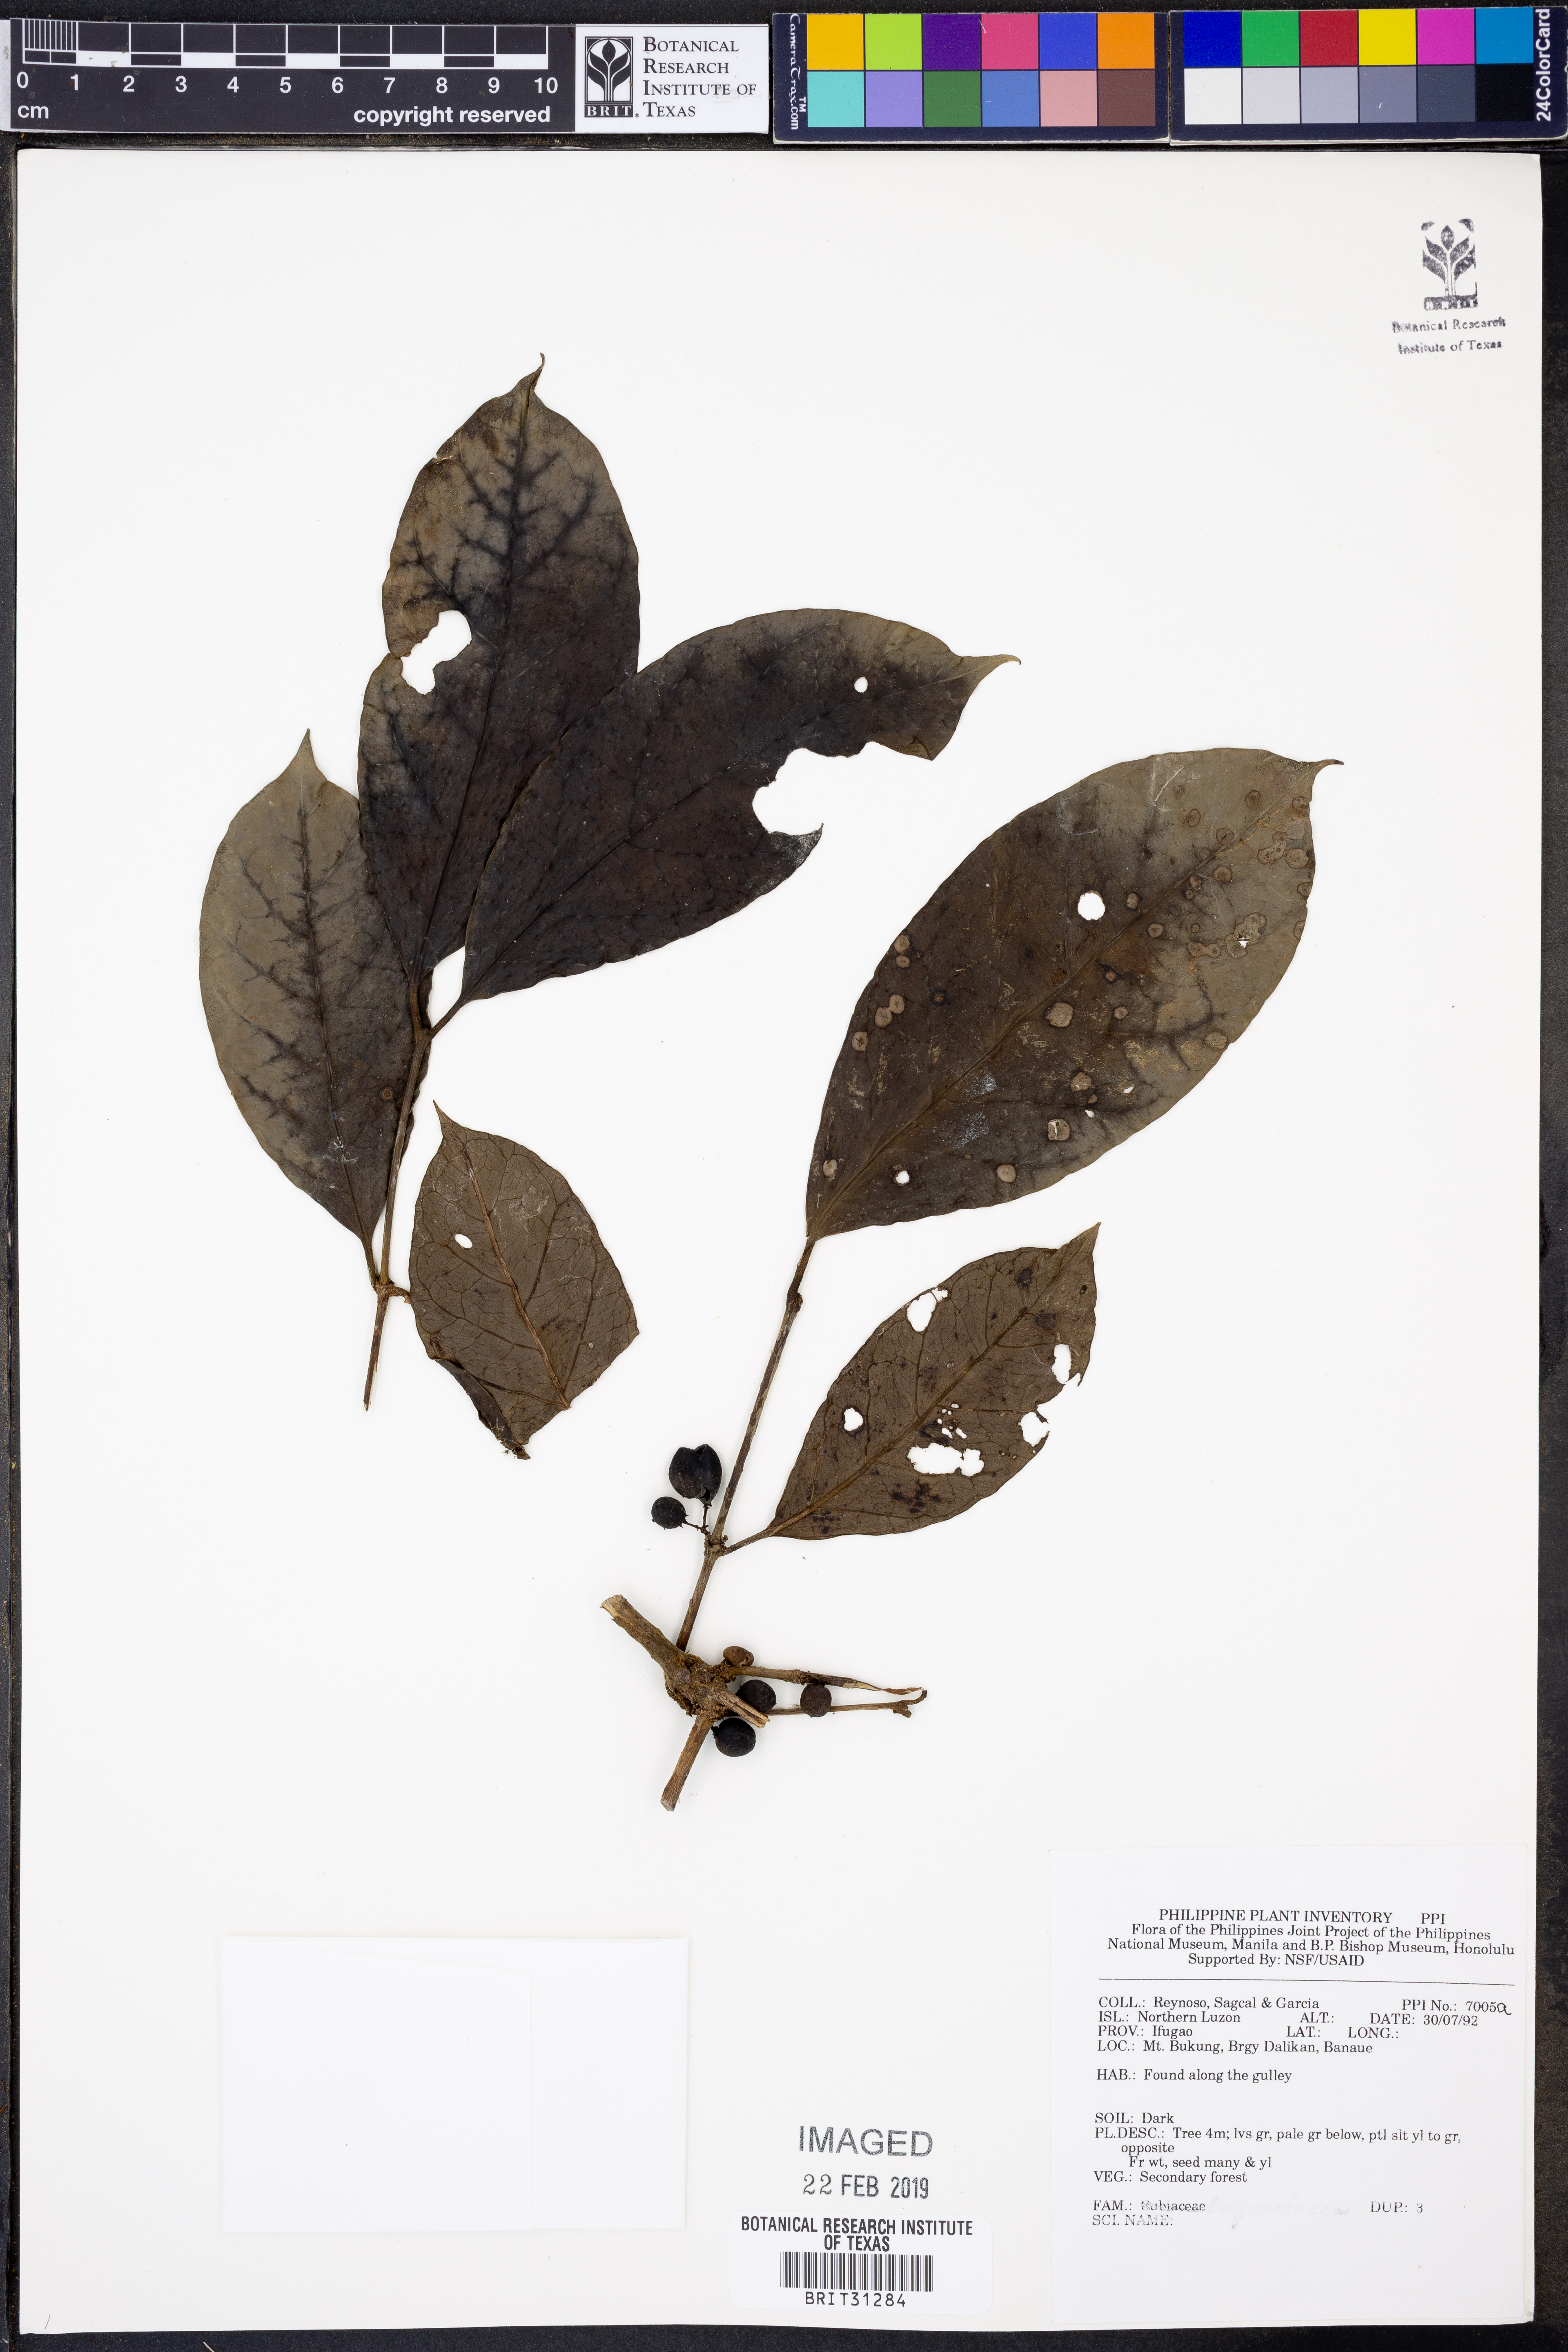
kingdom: Plantae
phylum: Tracheophyta
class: Magnoliopsida
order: Gentianales
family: Rubiaceae
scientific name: Rubiaceae
